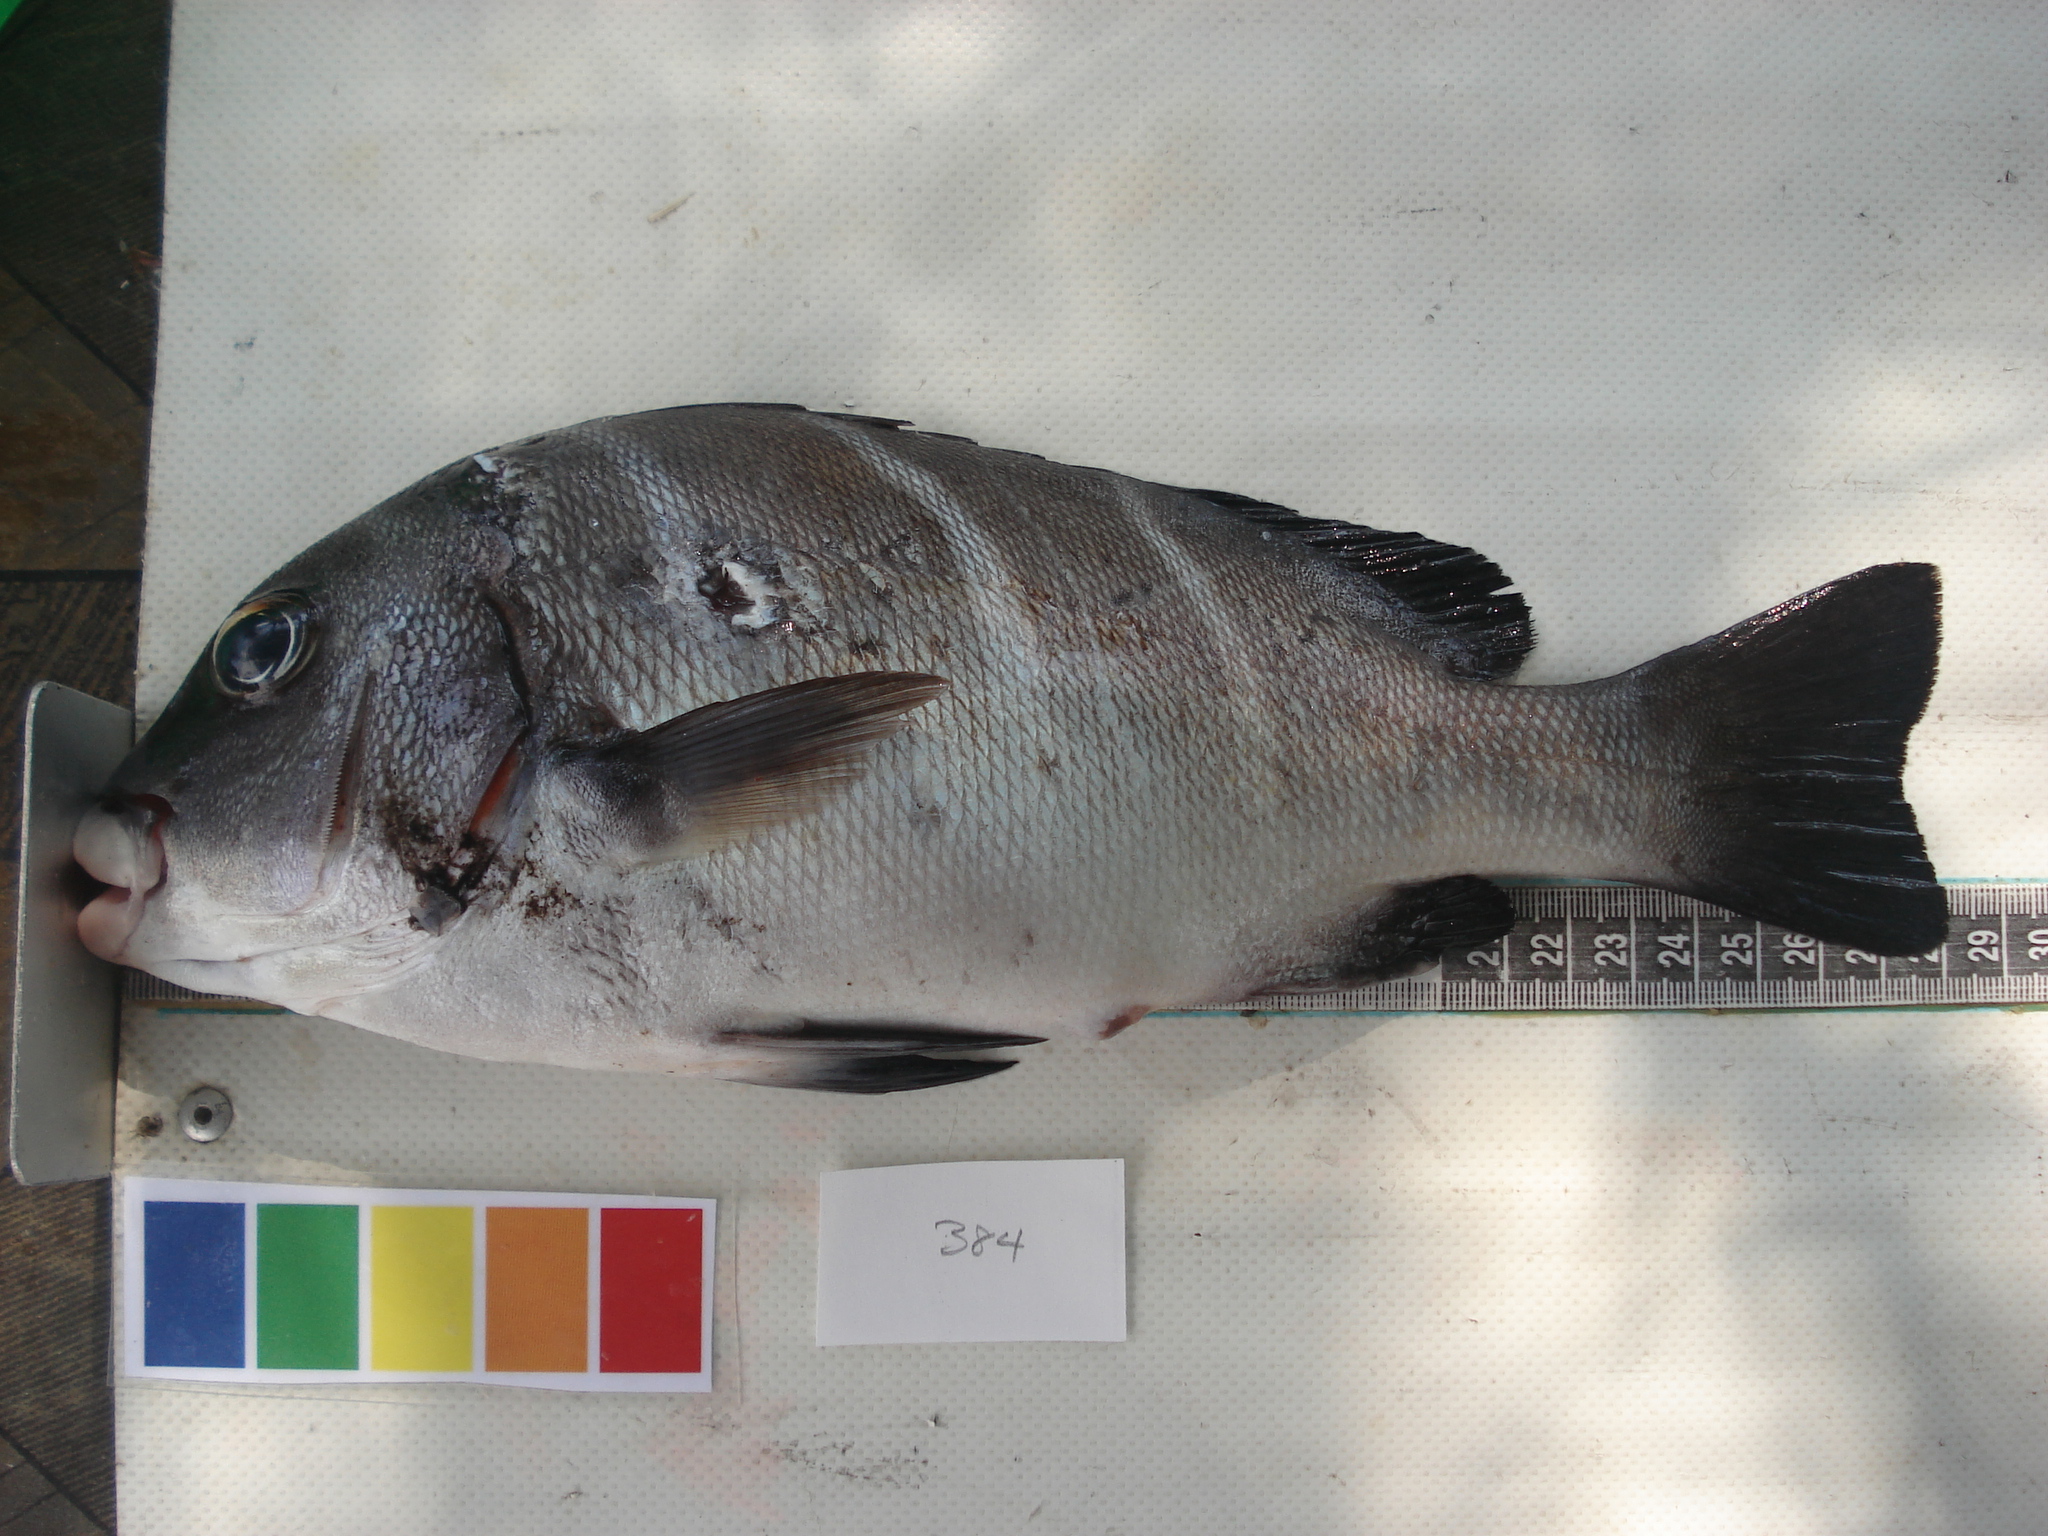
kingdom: Animalia
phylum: Chordata
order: Perciformes
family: Haemulidae
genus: Plectorhinchus
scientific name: Plectorhinchus playfairi
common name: Whitebarred rubberlip
